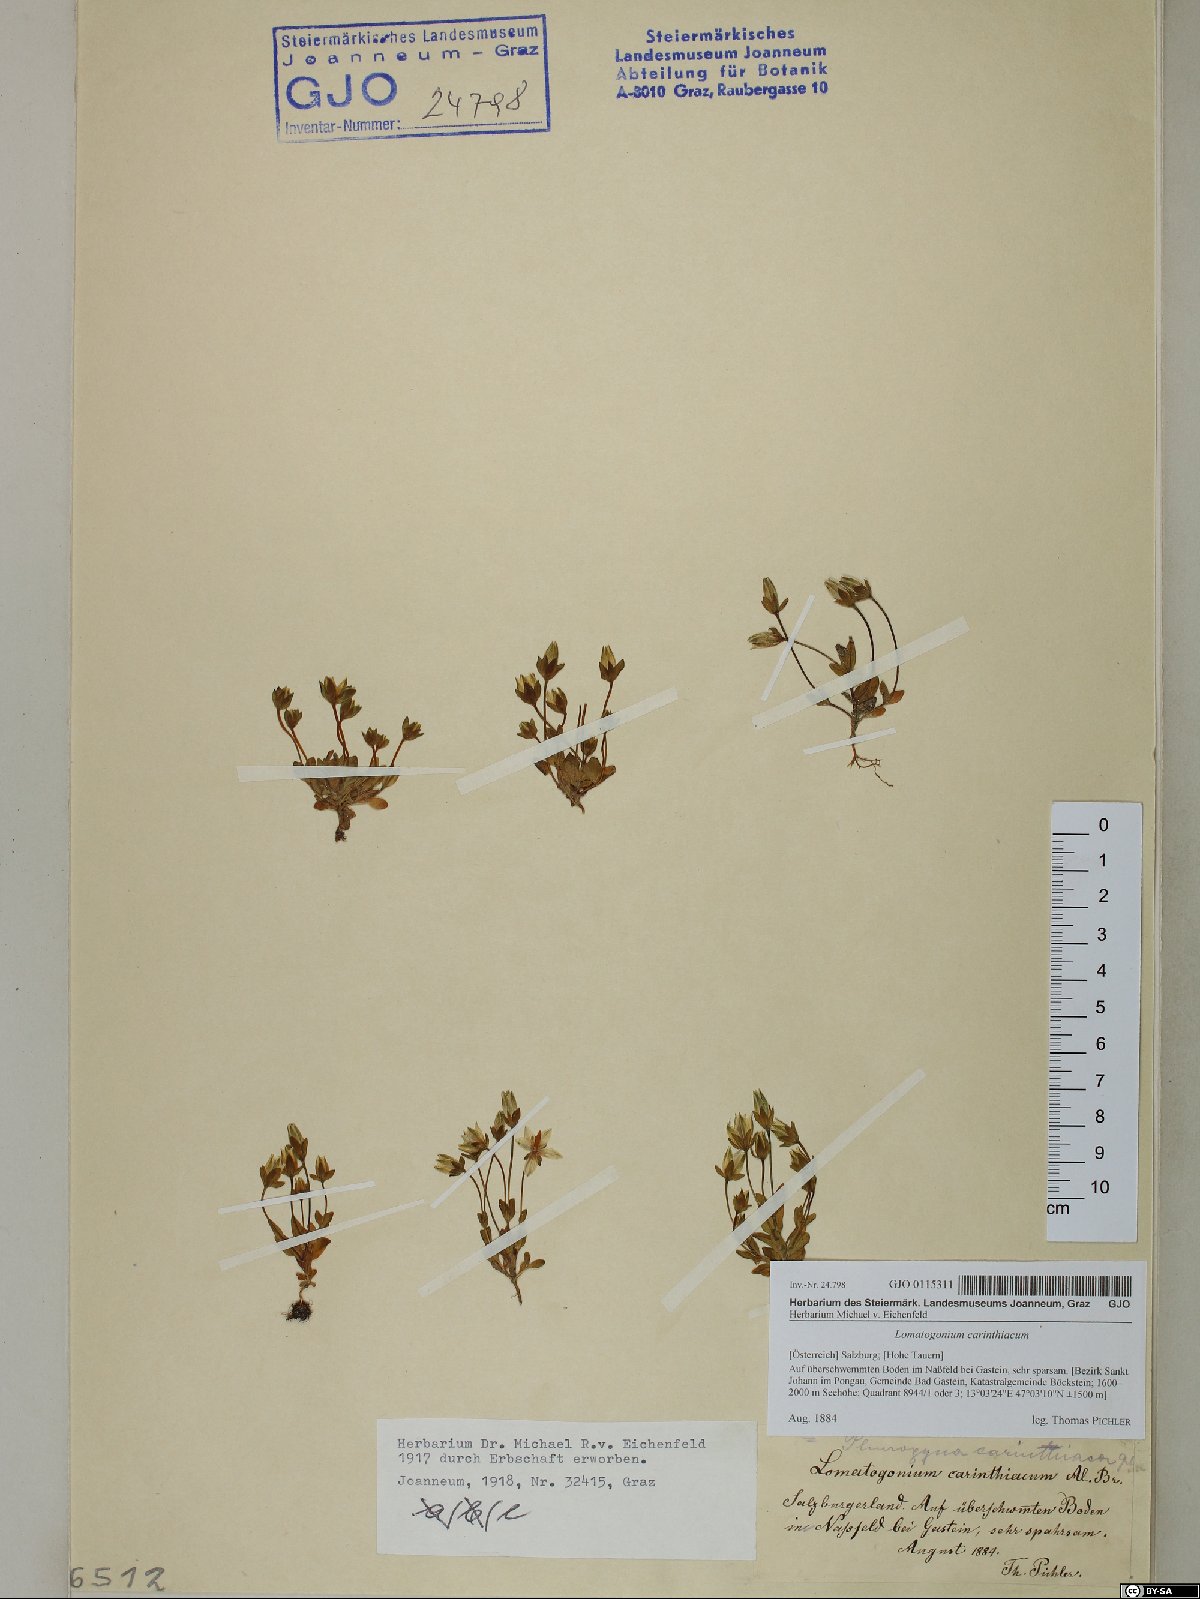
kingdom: Plantae
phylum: Tracheophyta
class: Magnoliopsida
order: Gentianales
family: Gentianaceae
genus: Lomatogonium
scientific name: Lomatogonium carinthiacum
